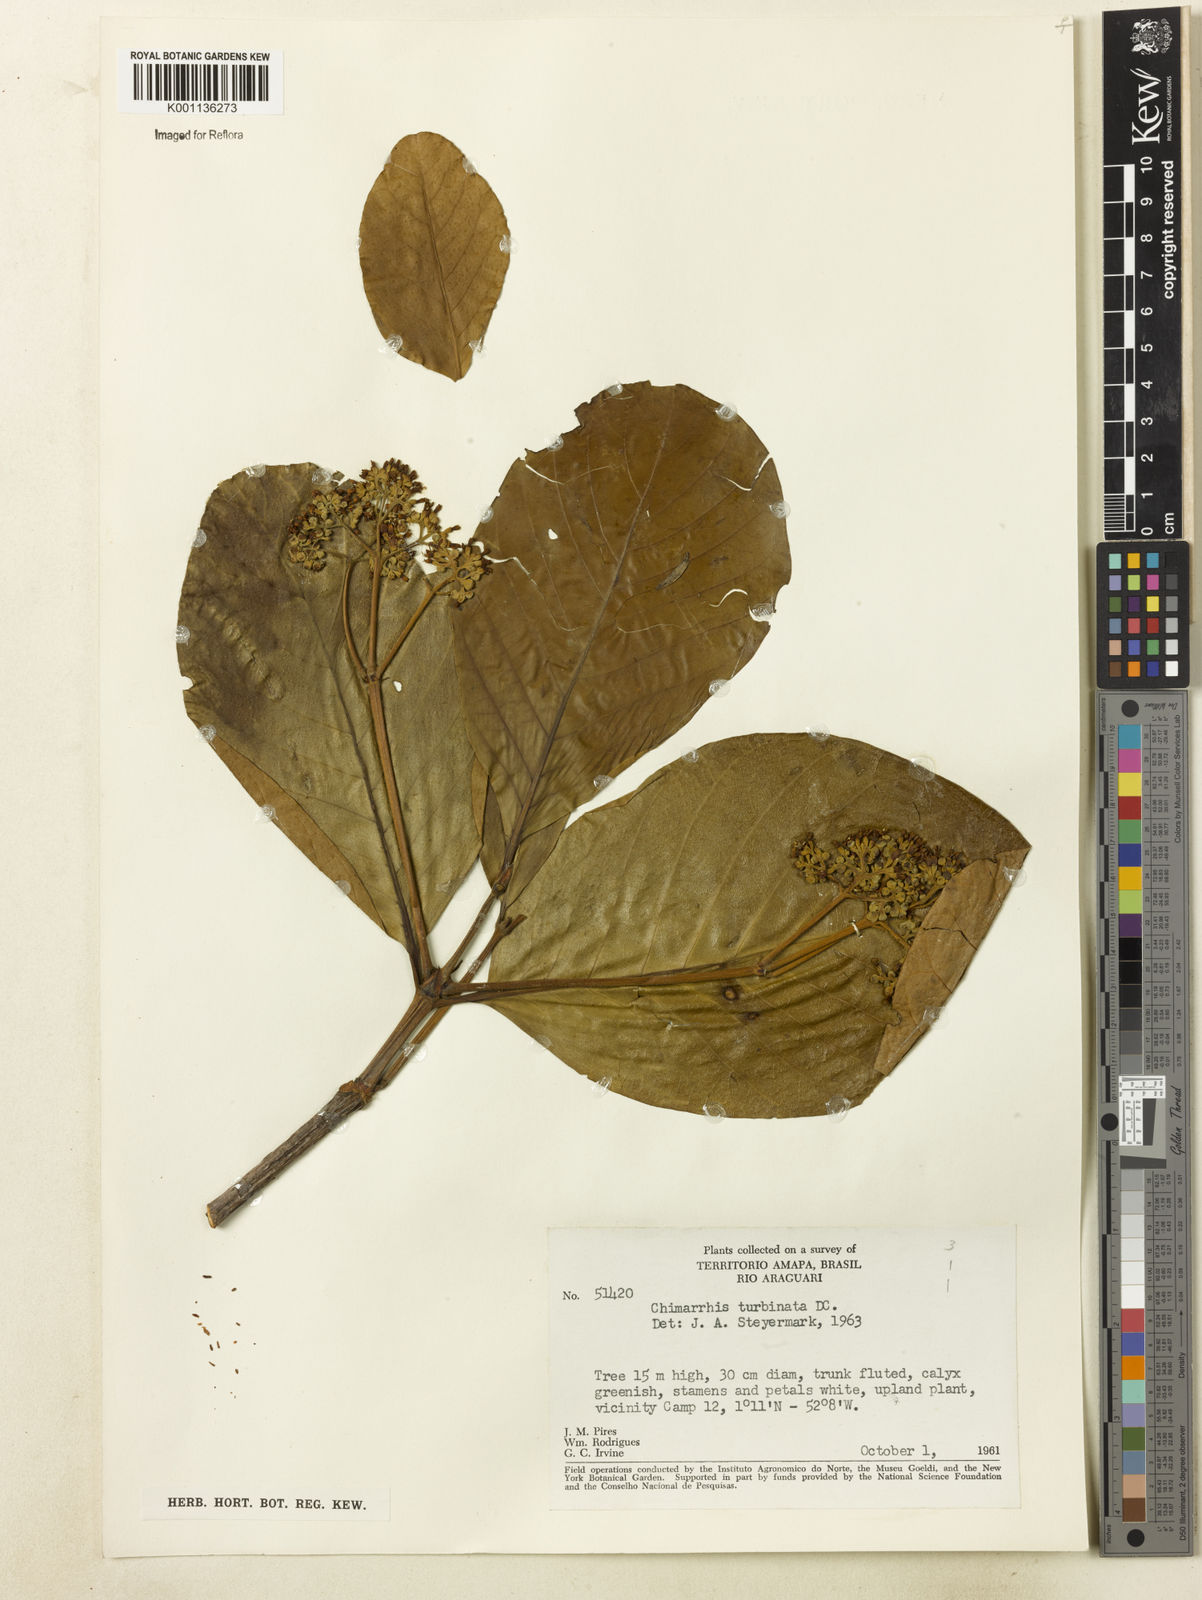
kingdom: Plantae
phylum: Tracheophyta
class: Magnoliopsida
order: Gentianales
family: Rubiaceae
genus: Chimarrhis
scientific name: Chimarrhis turbinata
